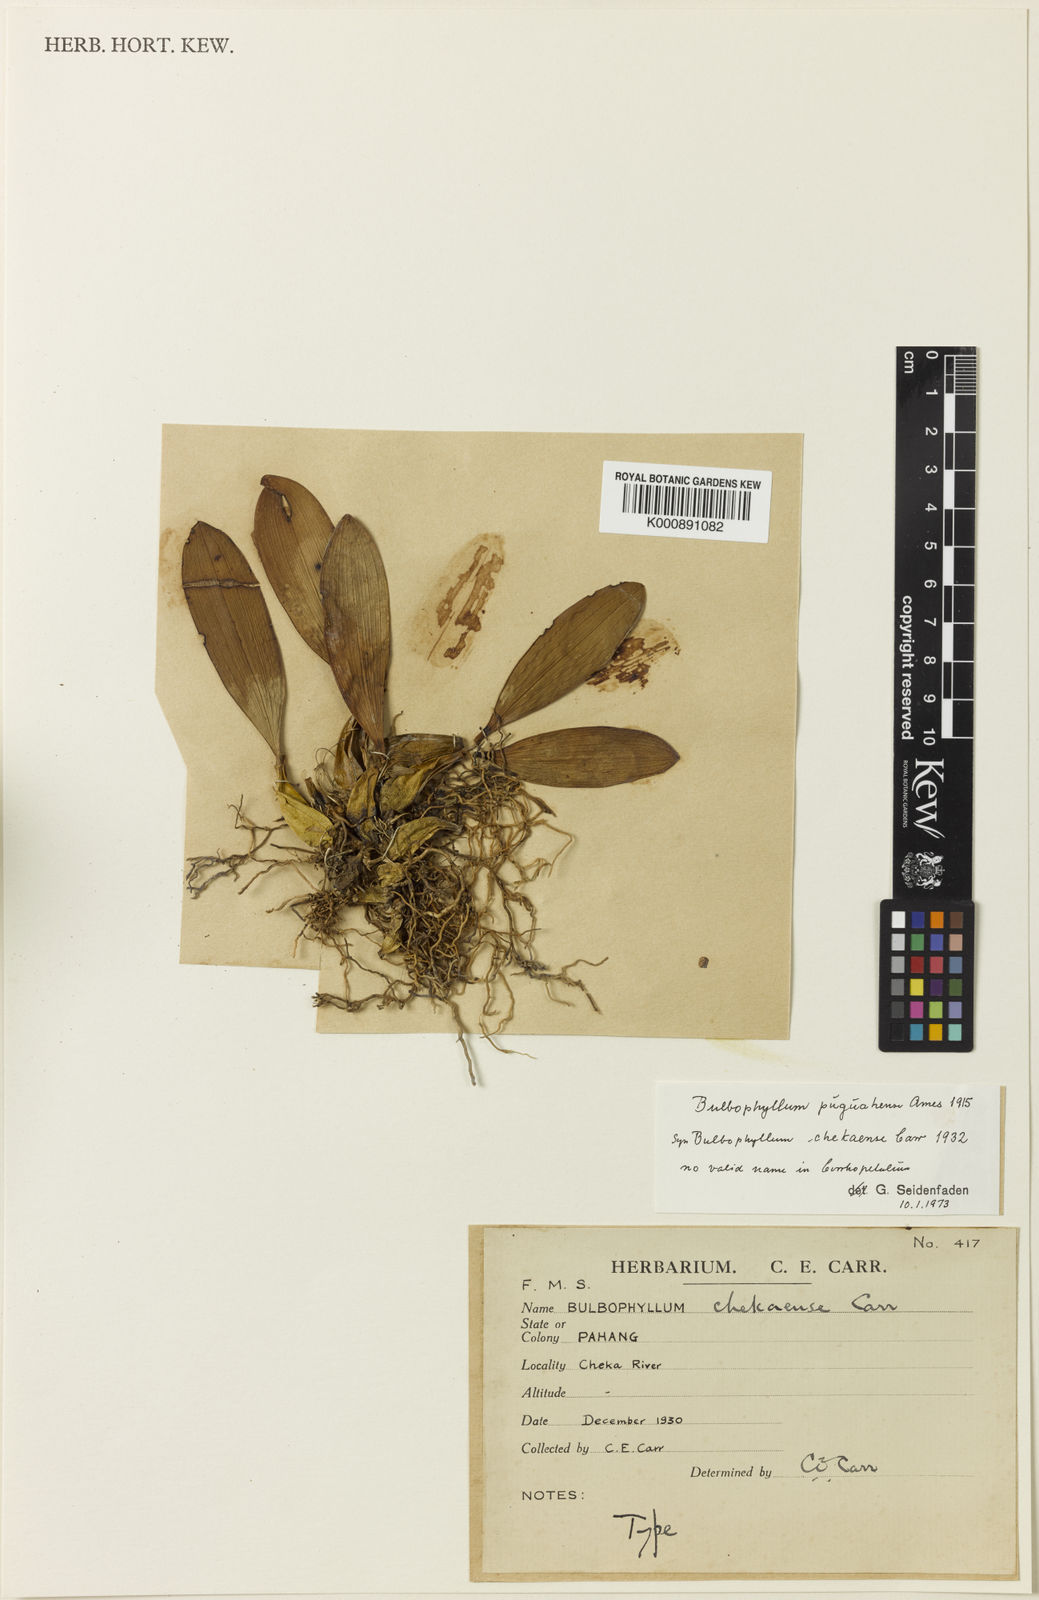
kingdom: Plantae
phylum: Tracheophyta
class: Liliopsida
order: Asparagales
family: Orchidaceae
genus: Bulbophyllum
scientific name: Bulbophyllum puguahaanense
